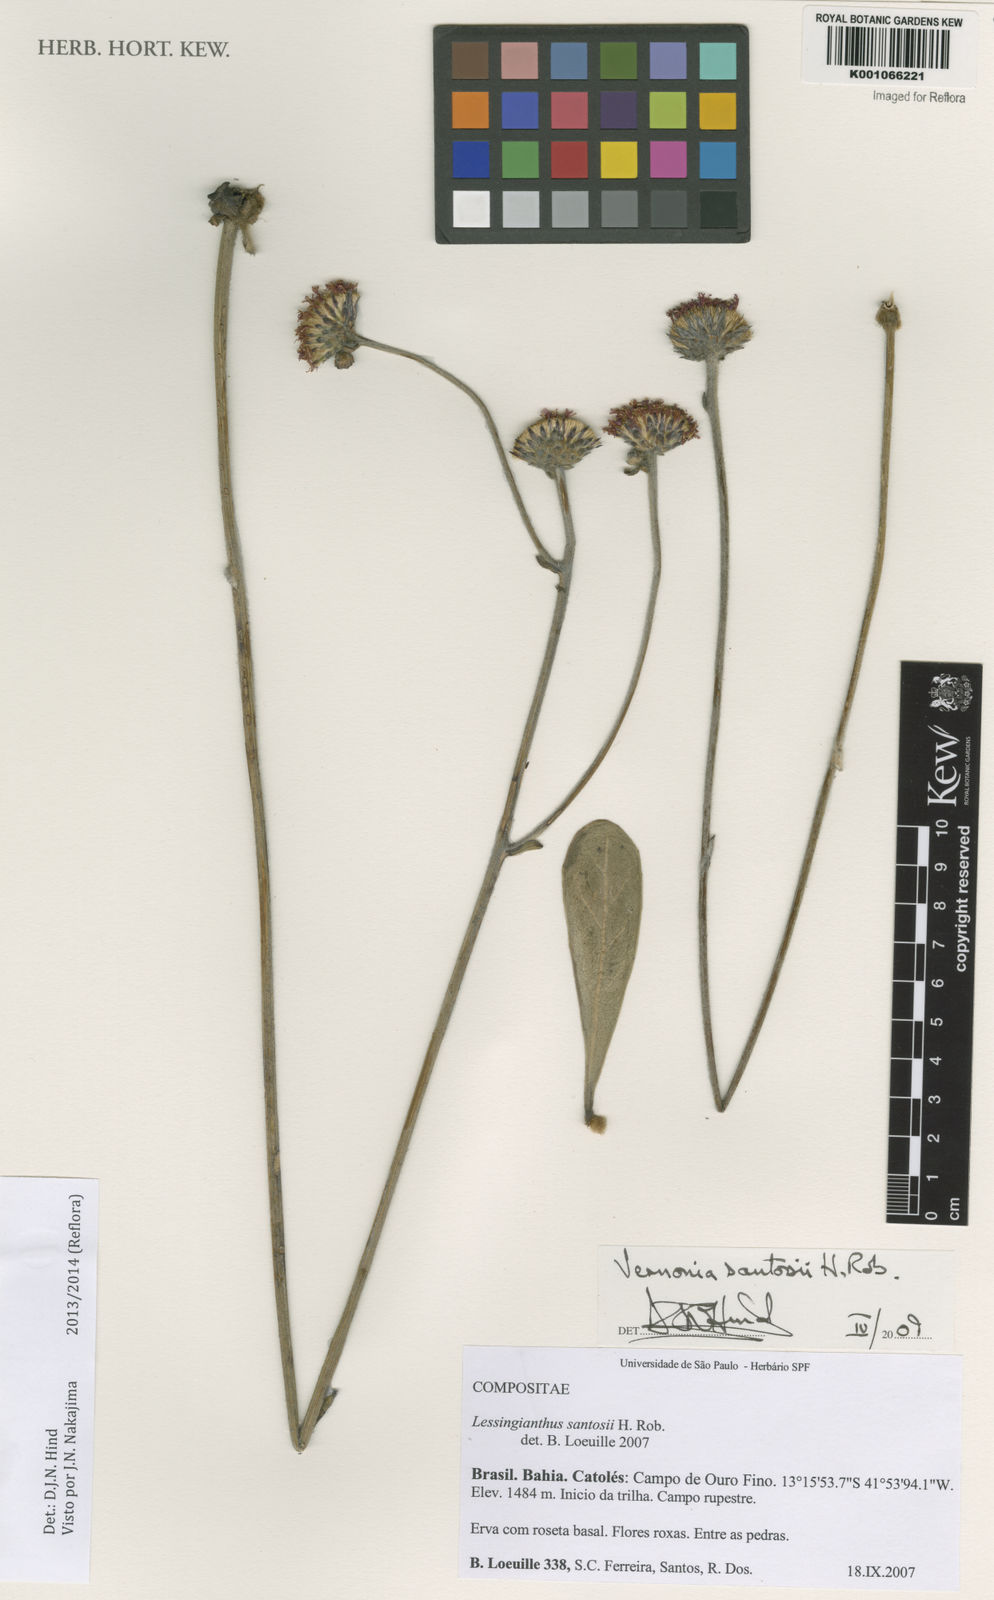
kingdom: Plantae
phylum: Tracheophyta
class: Magnoliopsida
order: Asterales
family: Asteraceae
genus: Lessingianthus
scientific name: Lessingianthus santosii
